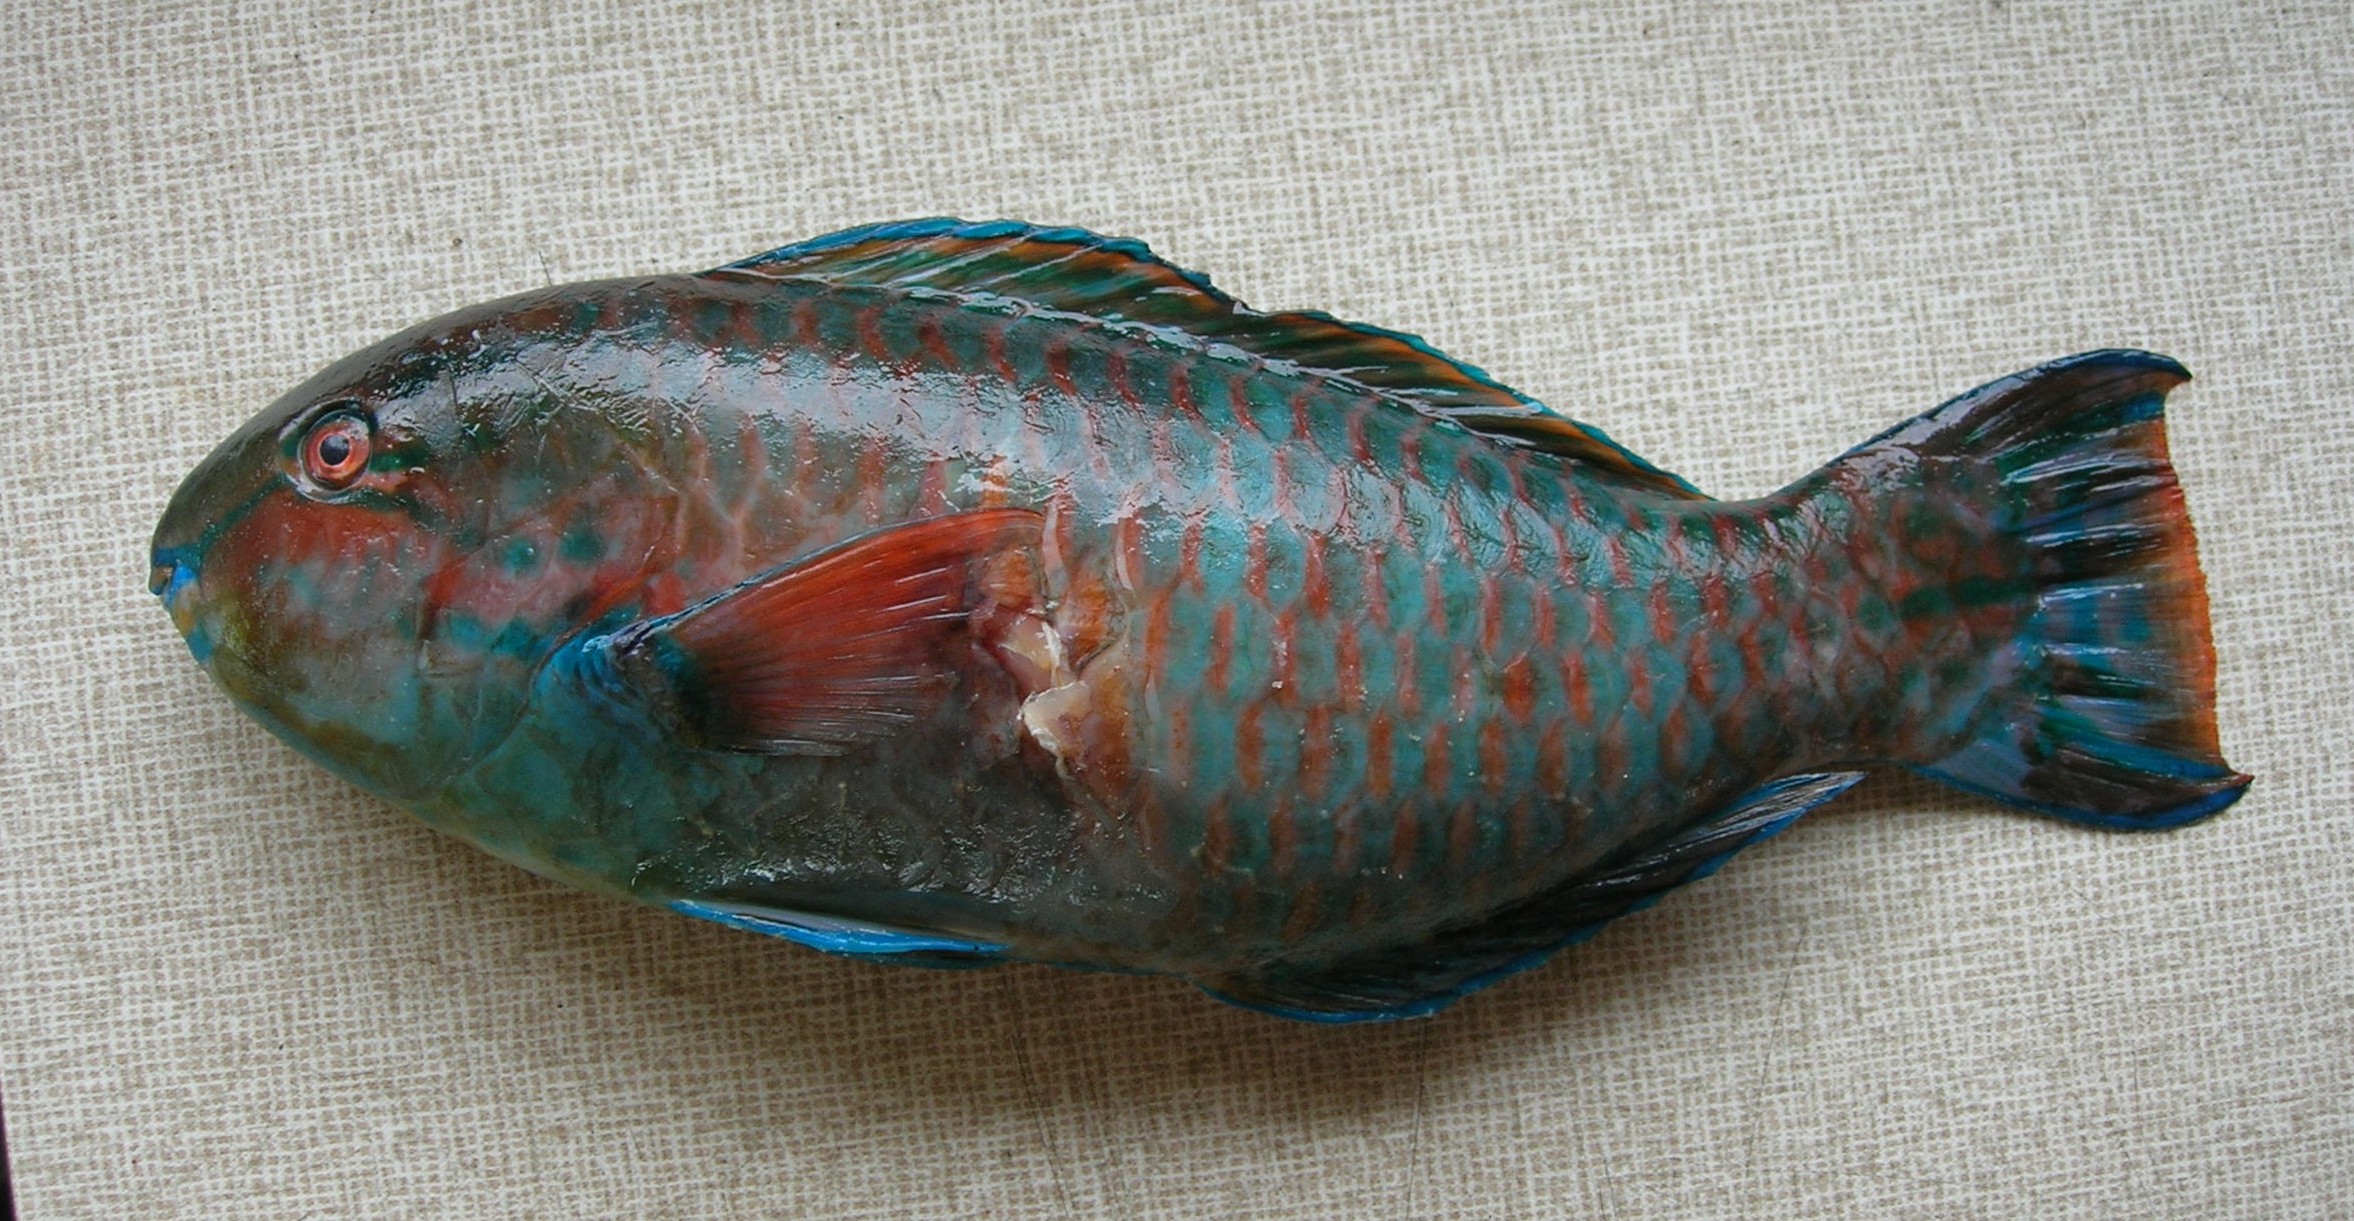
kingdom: Animalia
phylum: Chordata
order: Perciformes
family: Scaridae
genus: Scarus
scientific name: Scarus russelii
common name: Eclipse parrotfish
